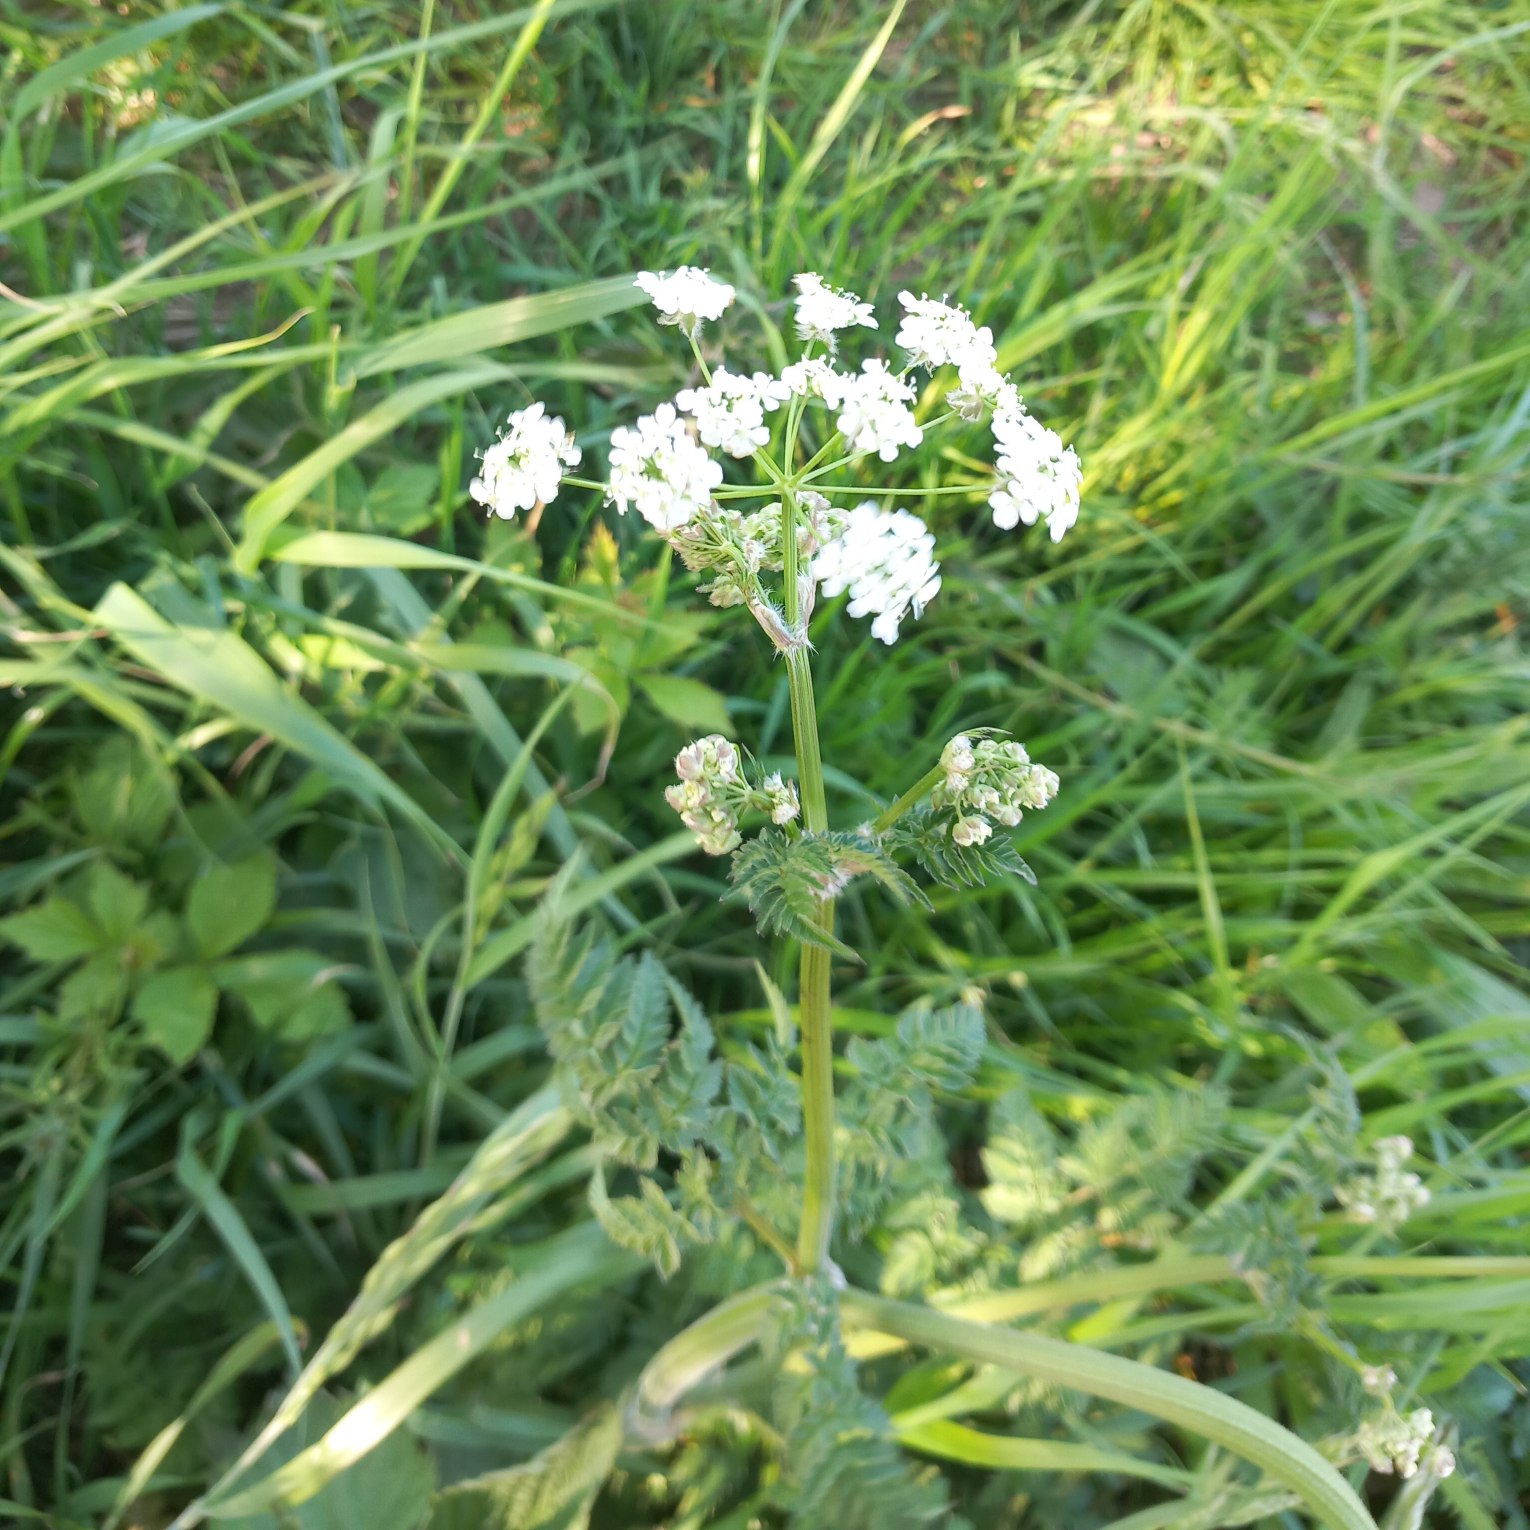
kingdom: Plantae
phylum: Tracheophyta
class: Magnoliopsida
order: Apiales
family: Apiaceae
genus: Anthriscus
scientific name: Anthriscus sylvestris
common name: Vild kørvel
